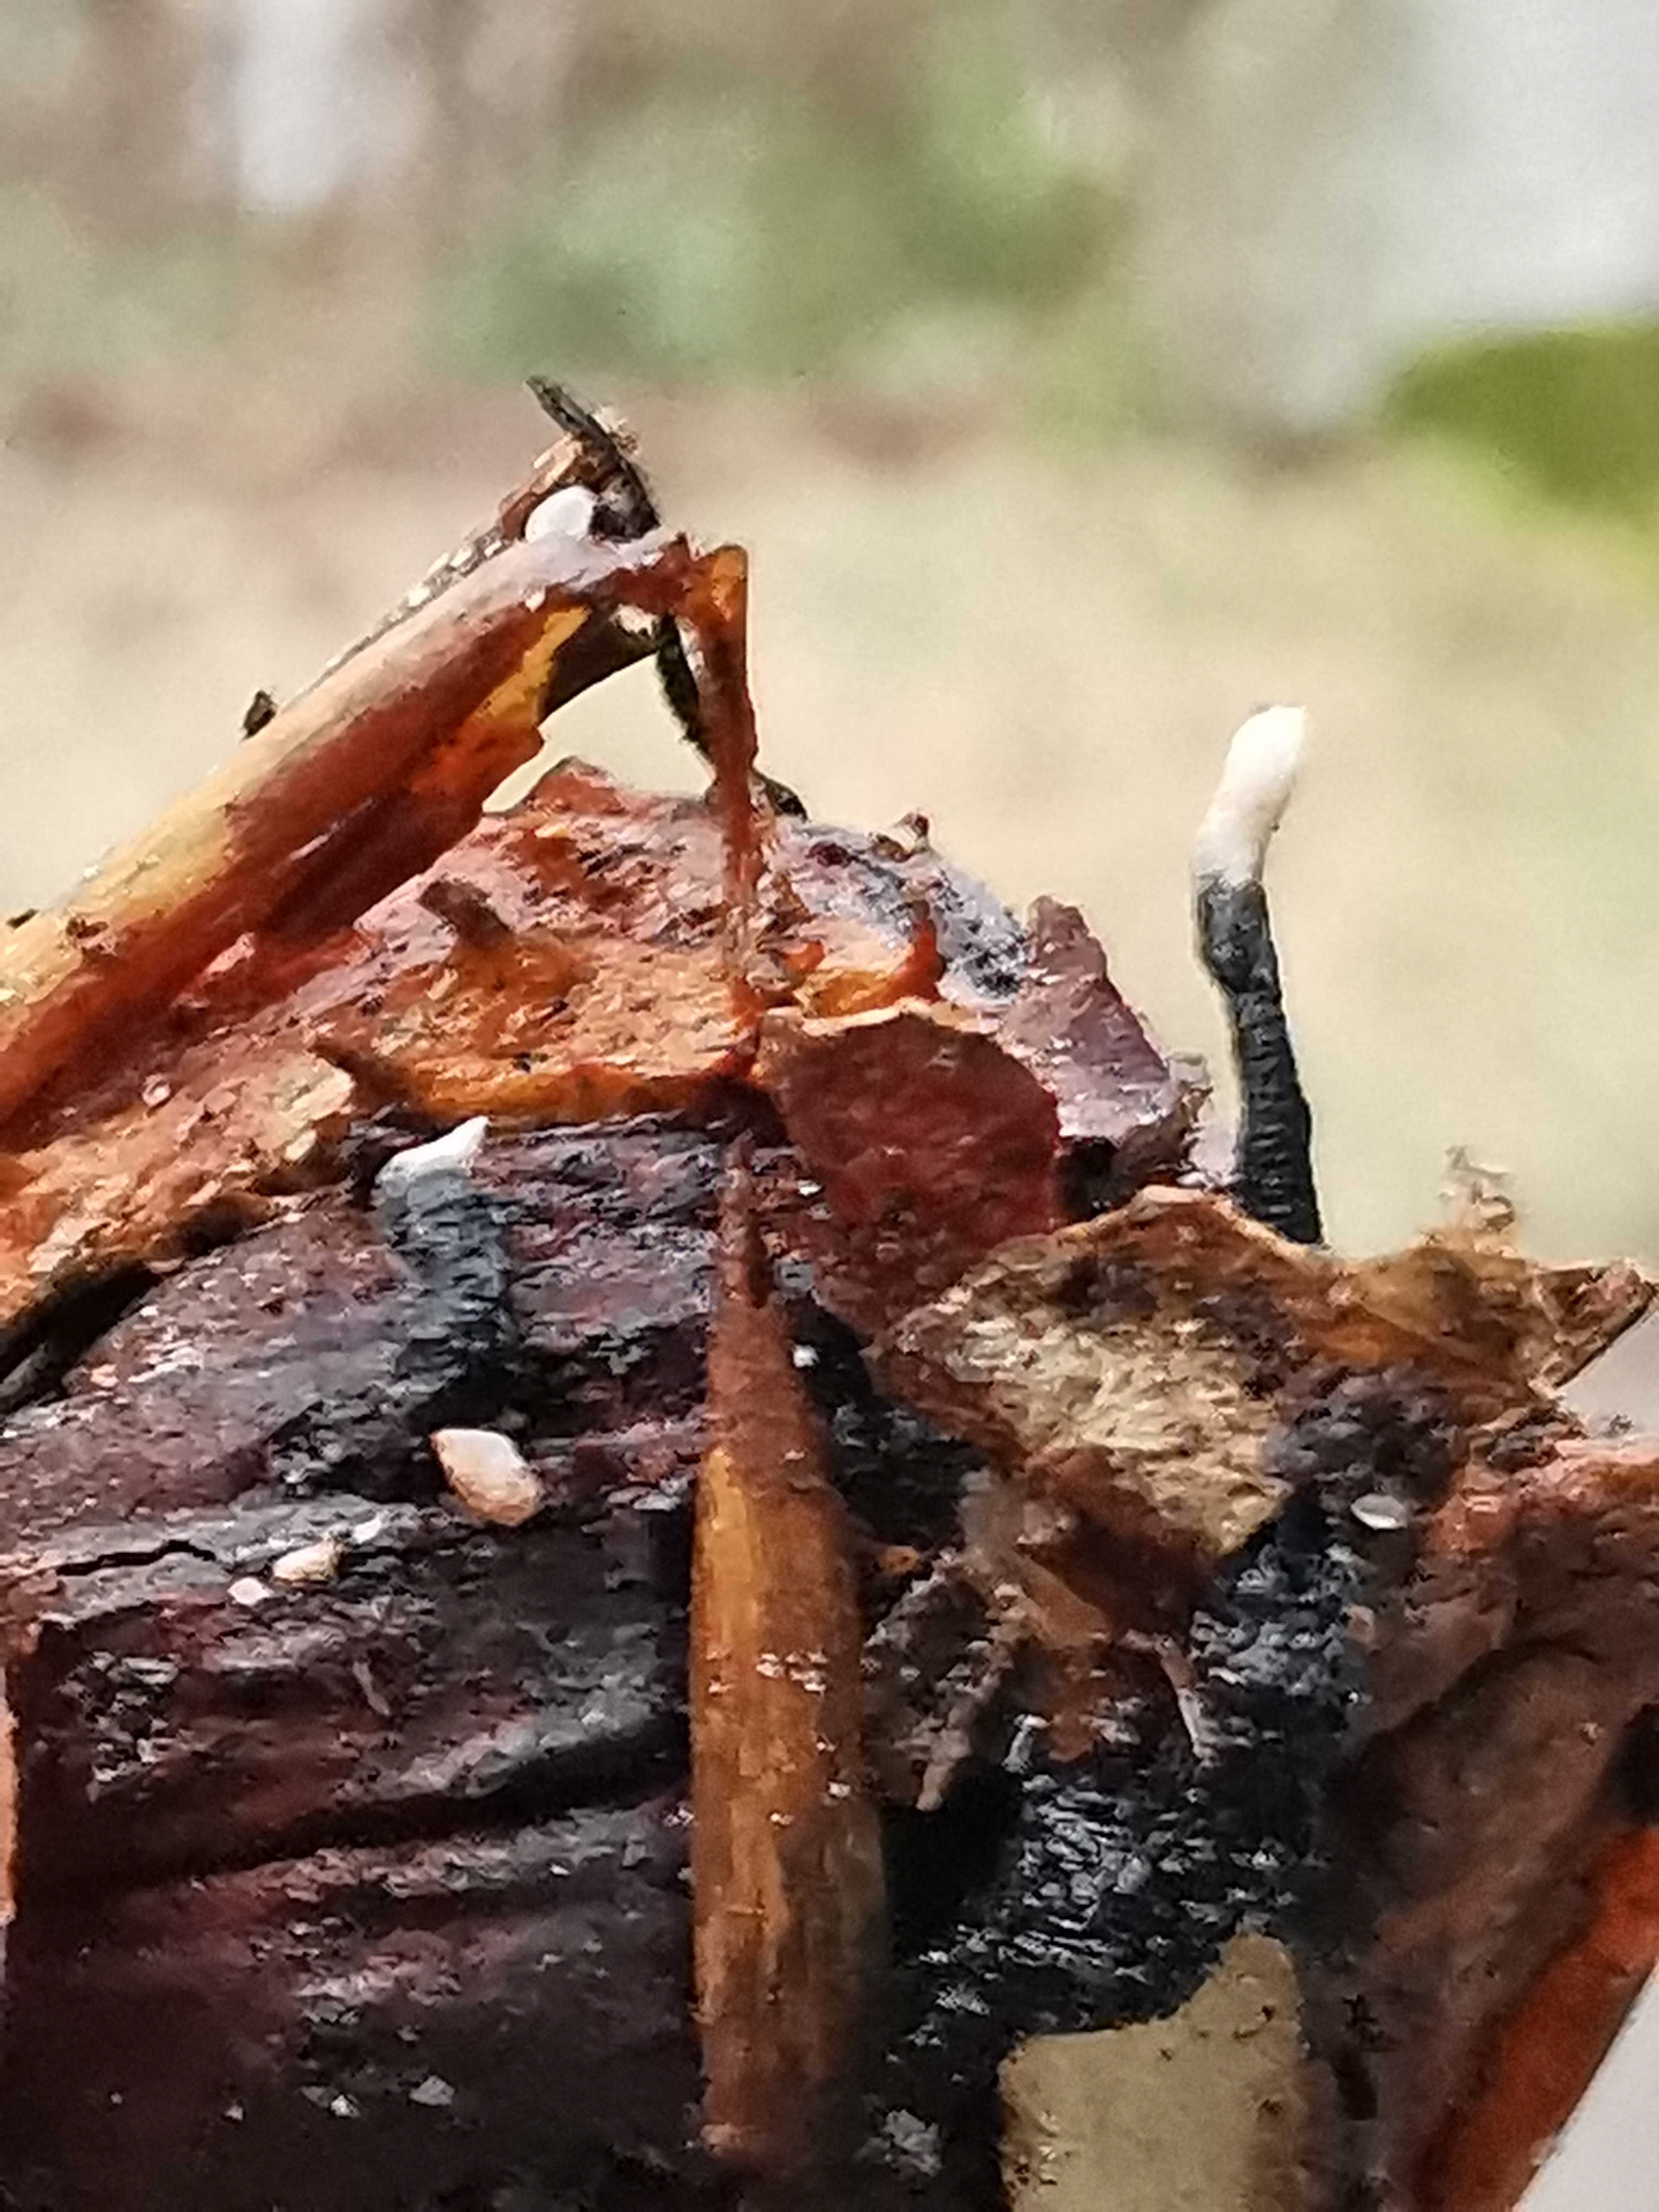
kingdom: Fungi
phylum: Ascomycota
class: Sordariomycetes
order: Xylariales
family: Xylariaceae
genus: Xylaria
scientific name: Xylaria carpophila
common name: bogskål-stødsvamp
